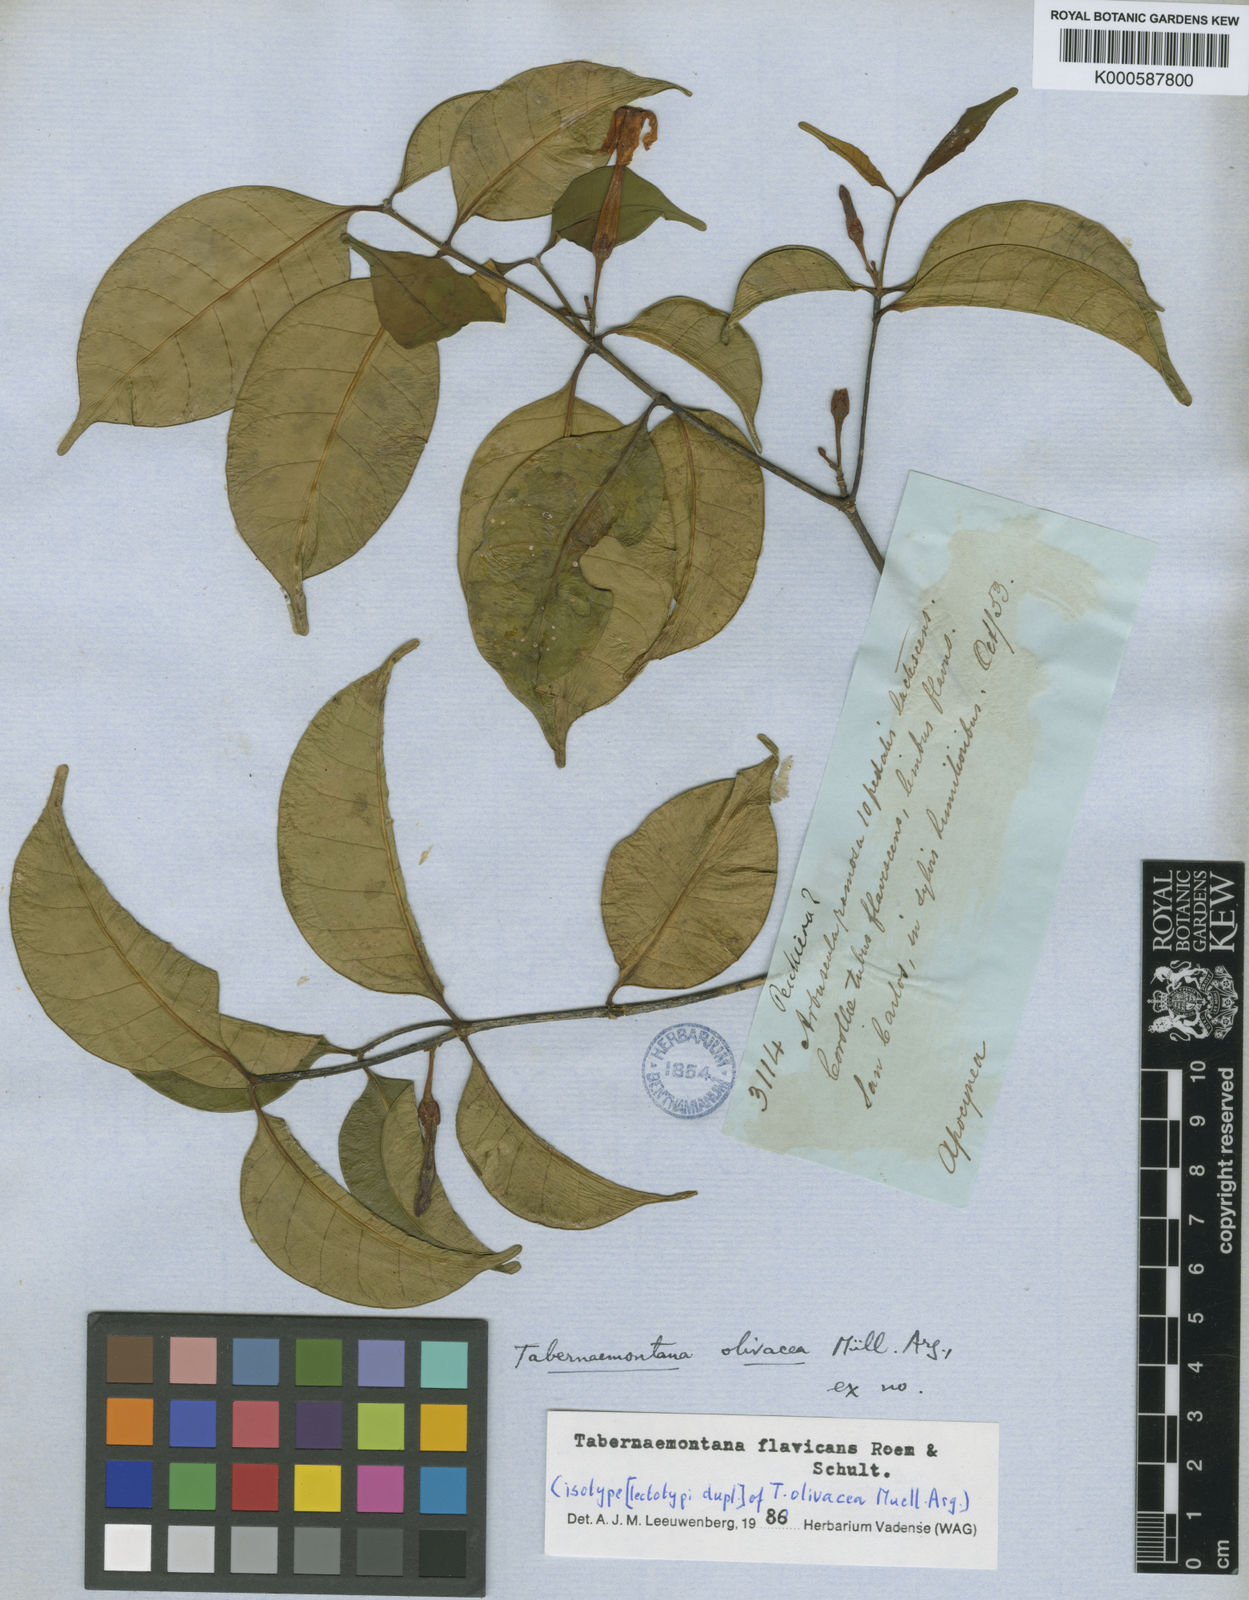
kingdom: Plantae
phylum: Tracheophyta
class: Magnoliopsida
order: Gentianales
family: Apocynaceae
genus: Tabernaemontana
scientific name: Tabernaemontana flavicans
